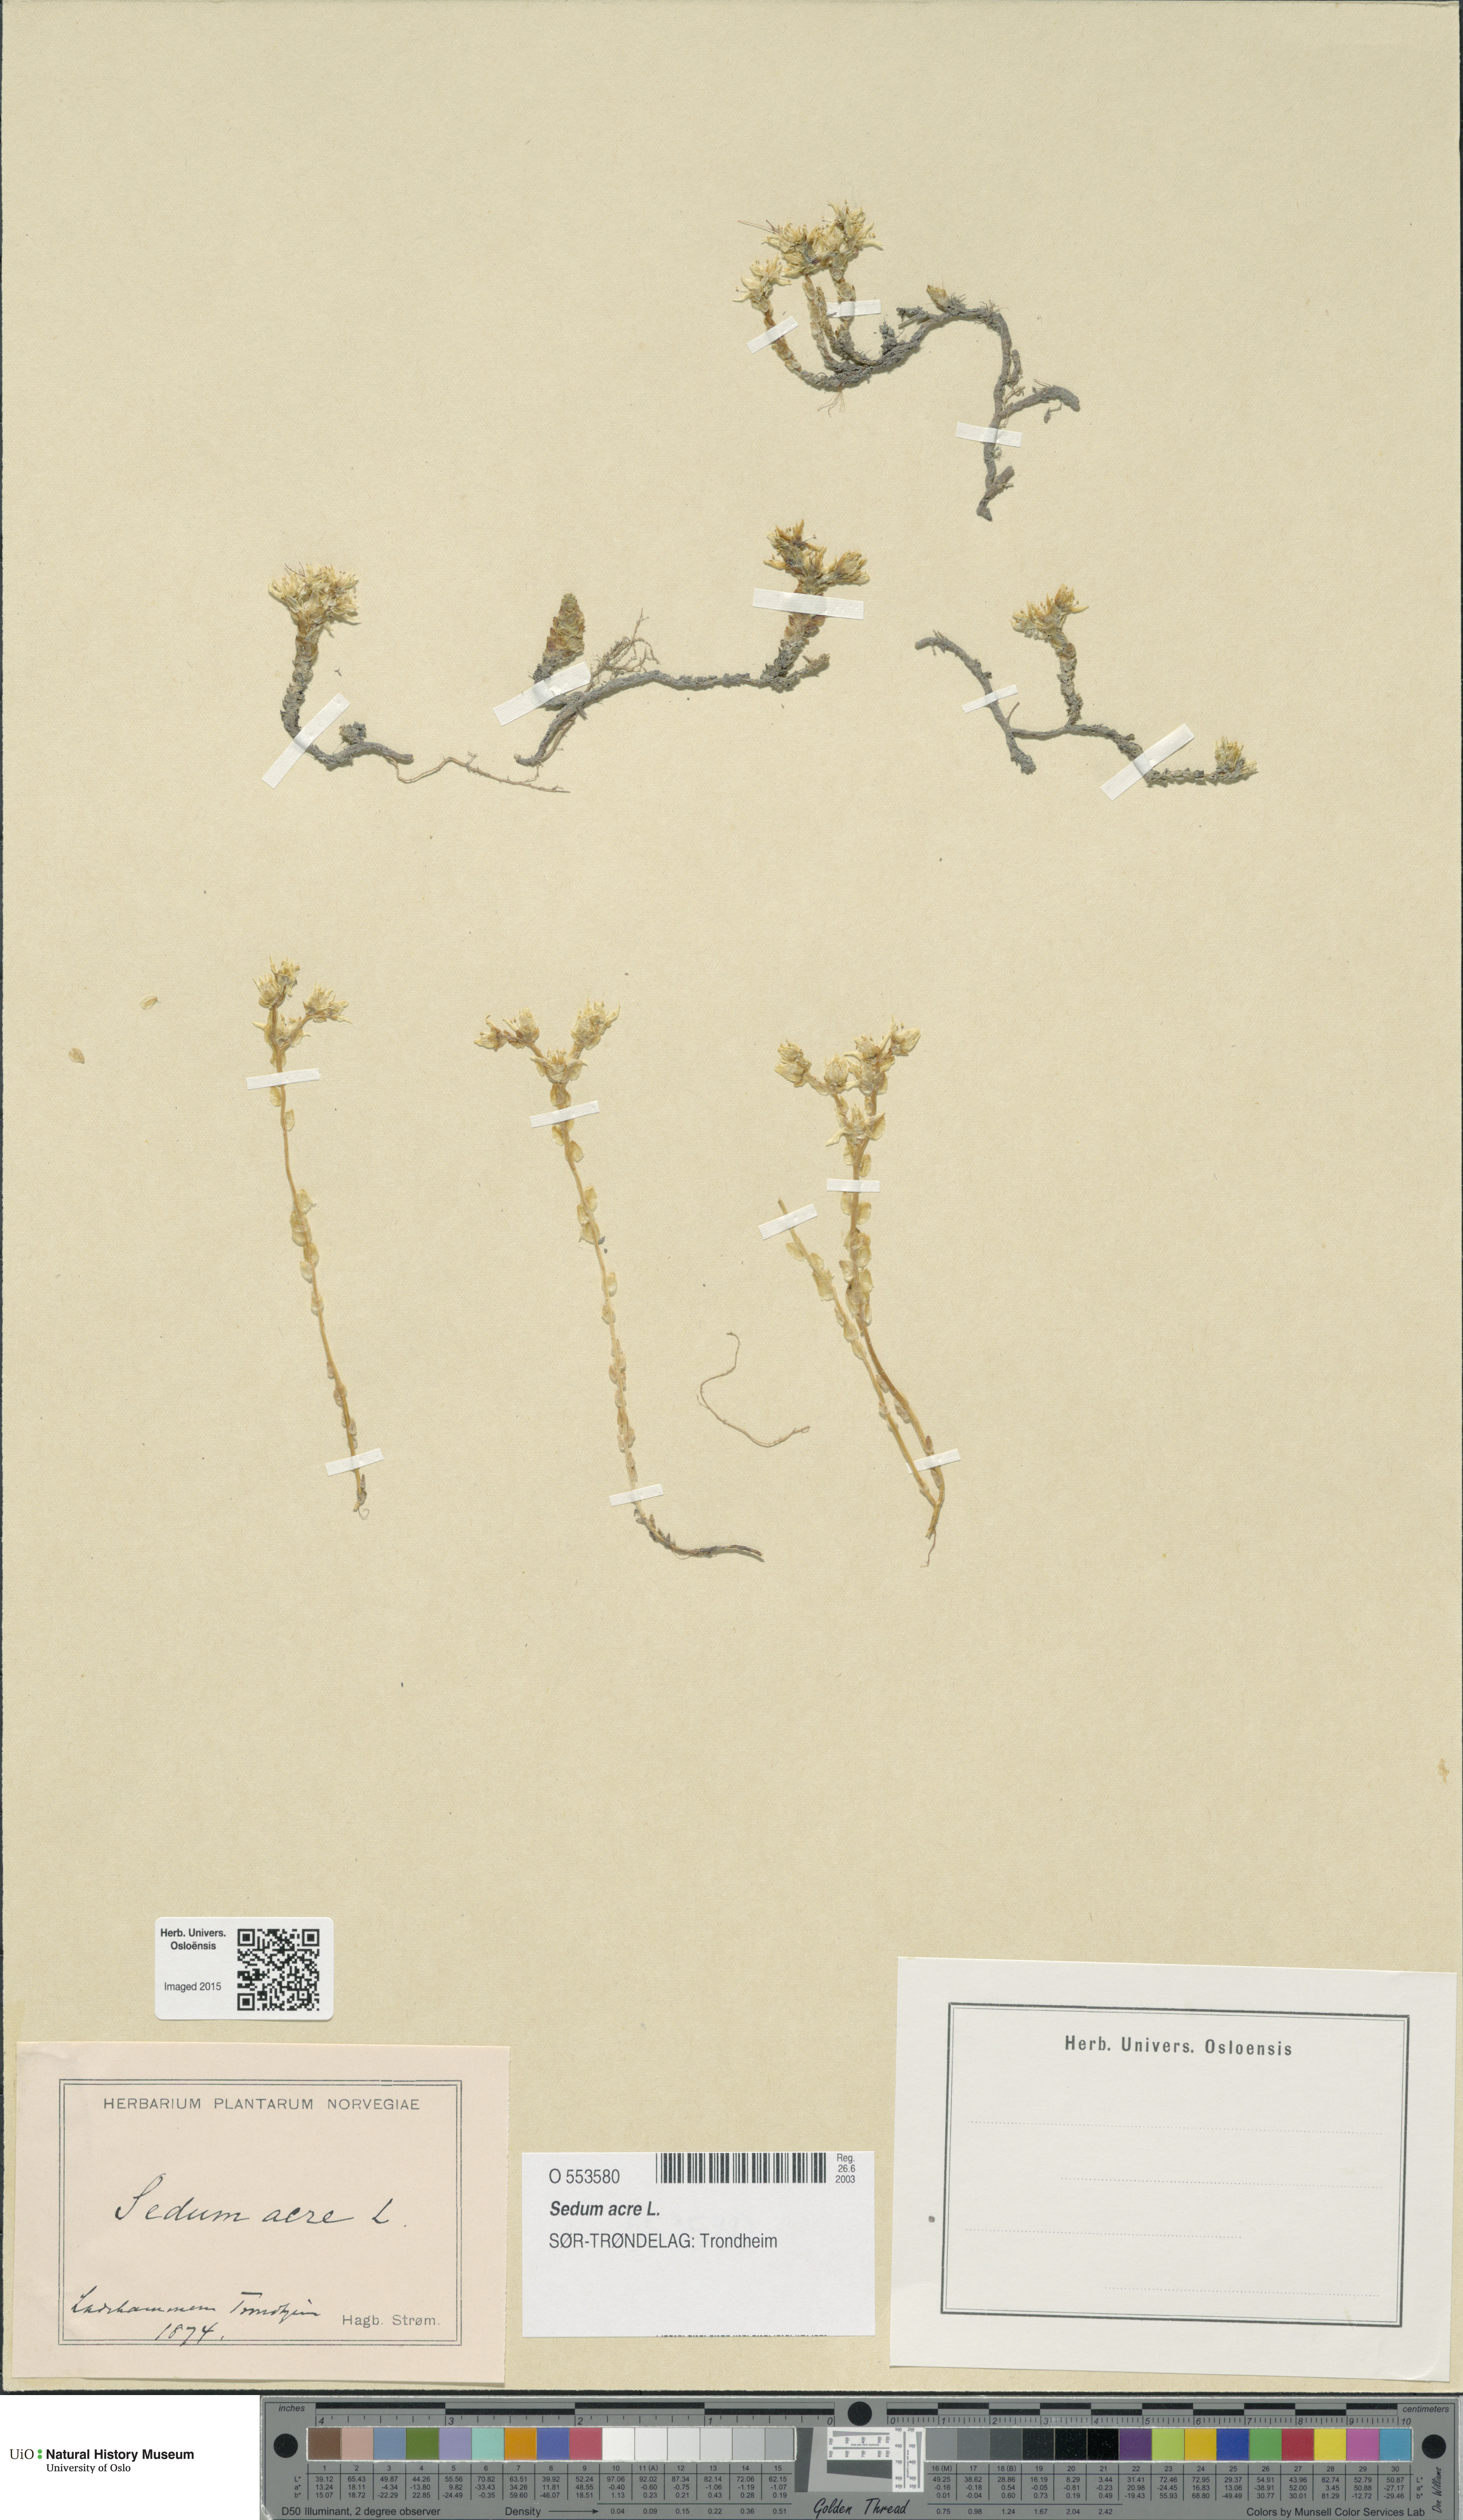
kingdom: Plantae
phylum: Tracheophyta
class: Magnoliopsida
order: Saxifragales
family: Crassulaceae
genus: Sedum
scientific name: Sedum acre
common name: Biting stonecrop
